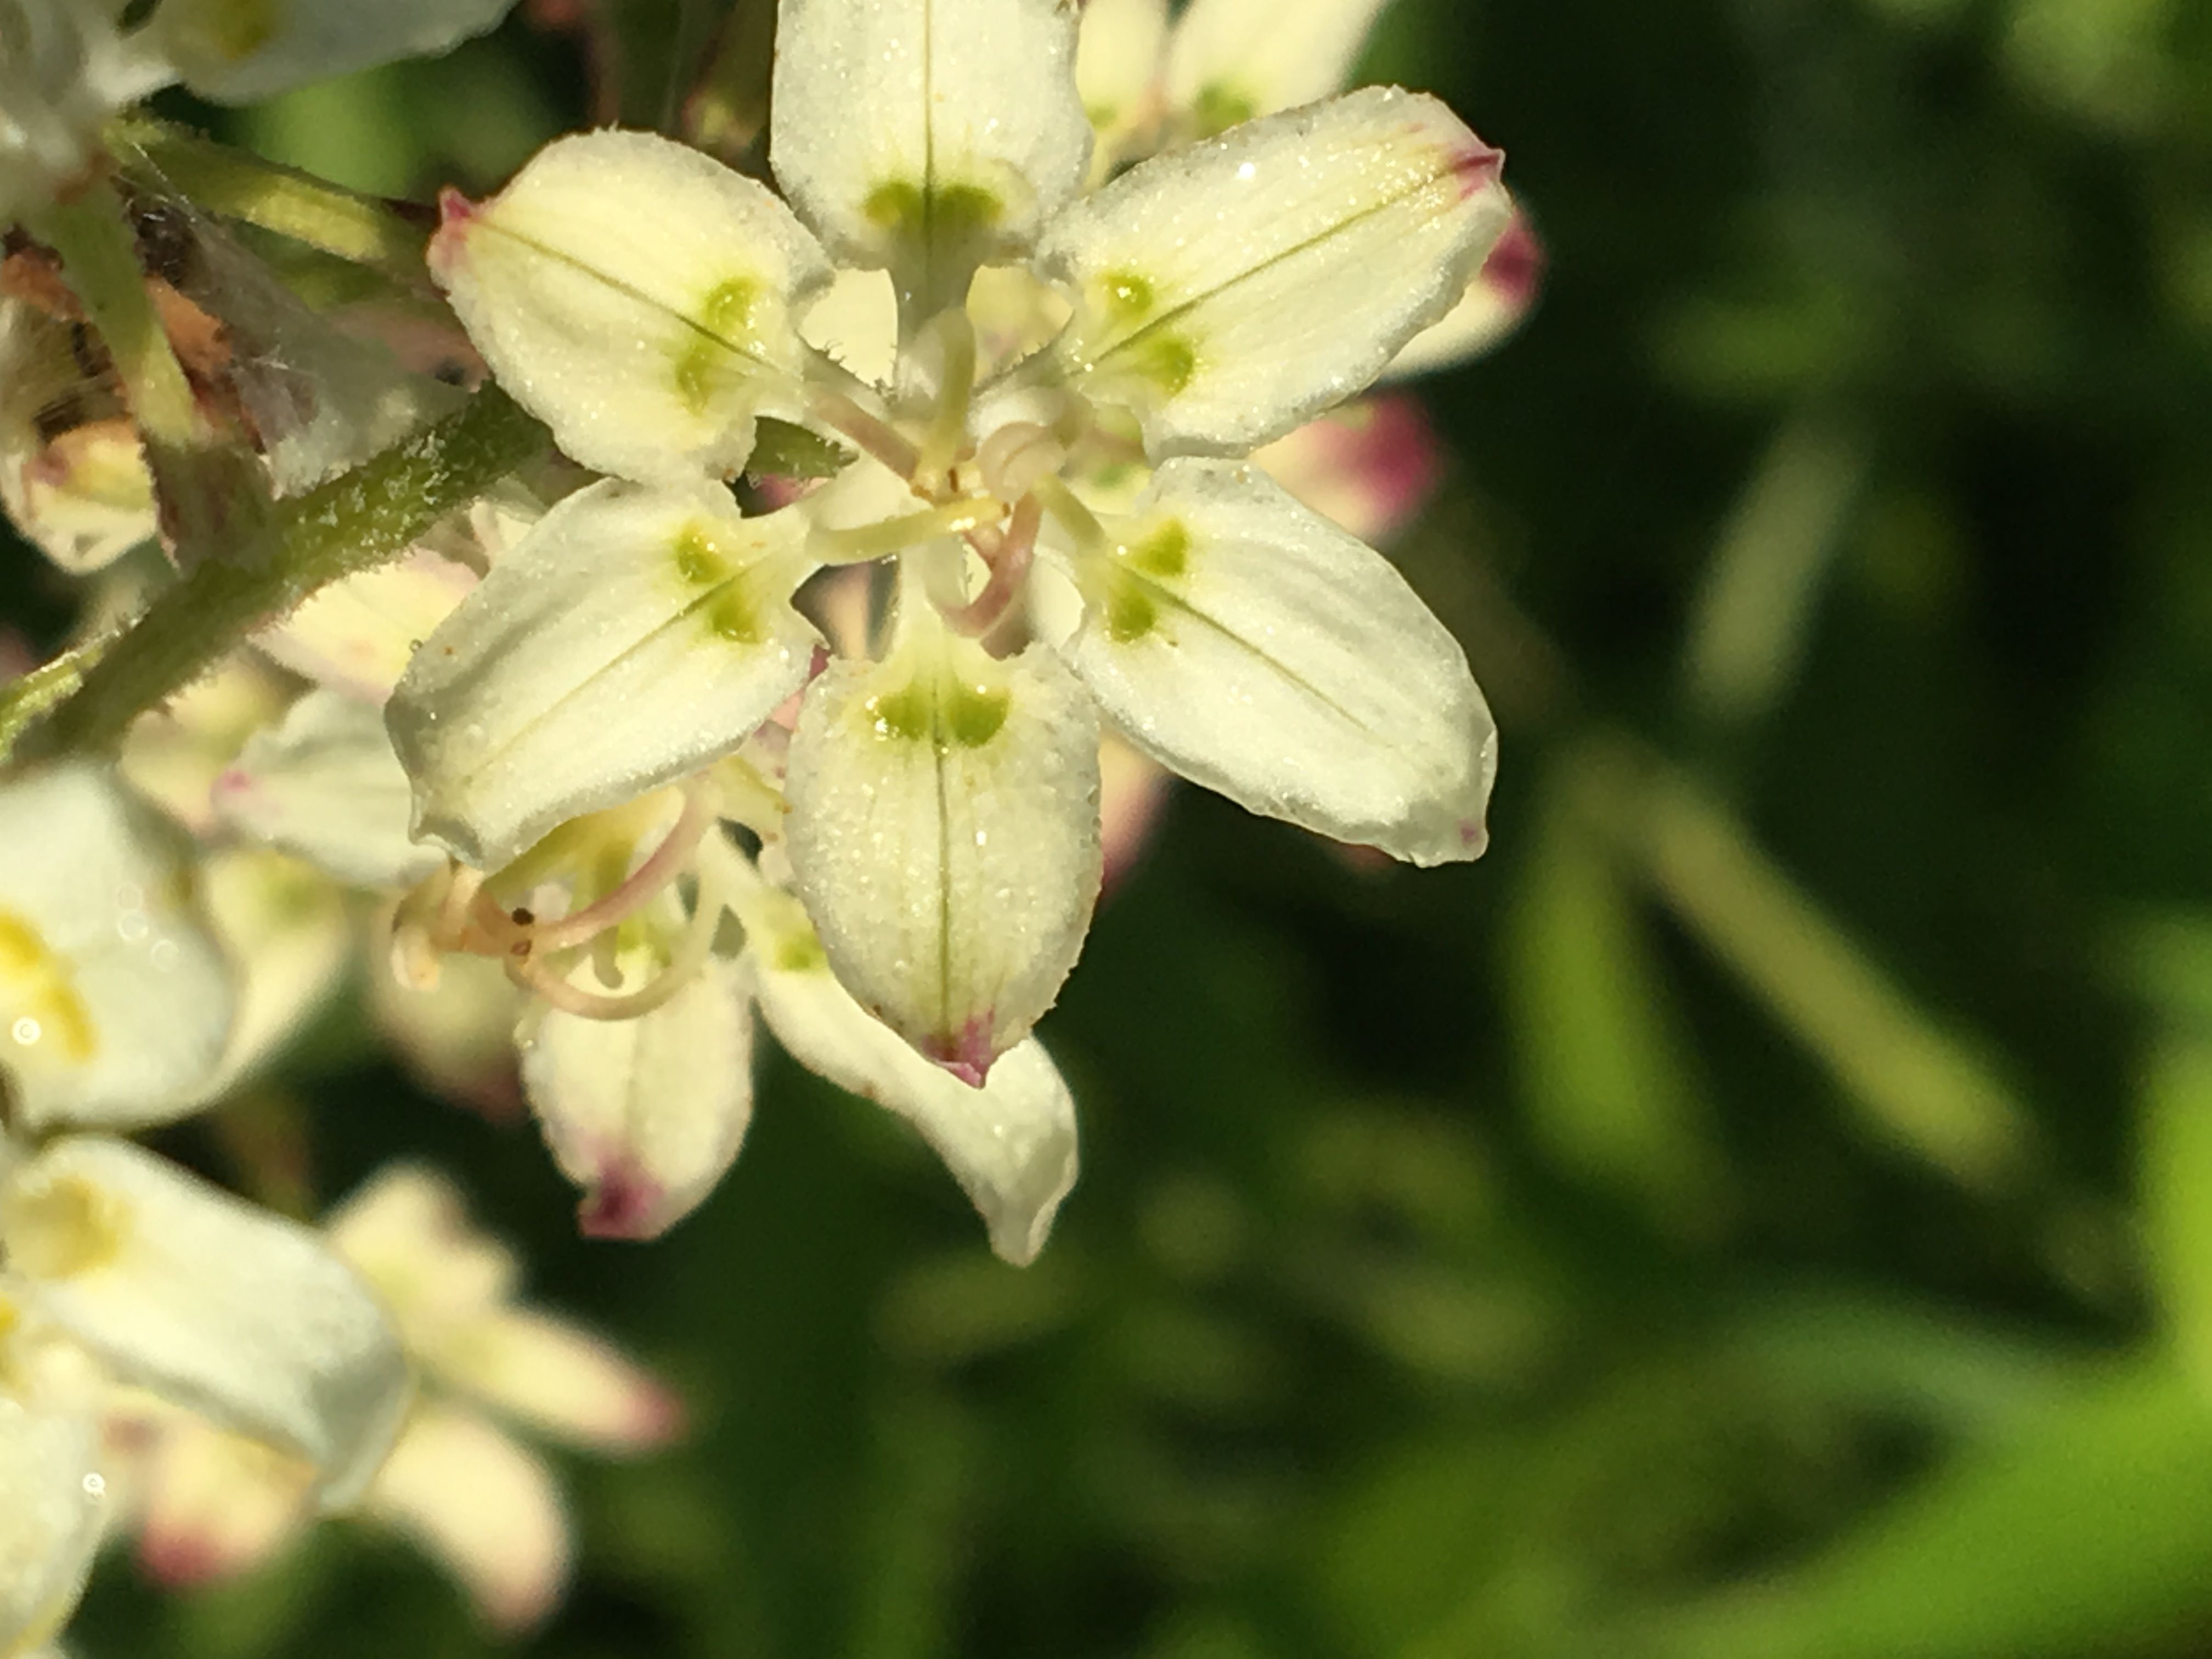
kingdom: Plantae
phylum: Tracheophyta
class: Liliopsida
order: Liliales
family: Melanthiaceae
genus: Melanthium
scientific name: Melanthium virginicum
